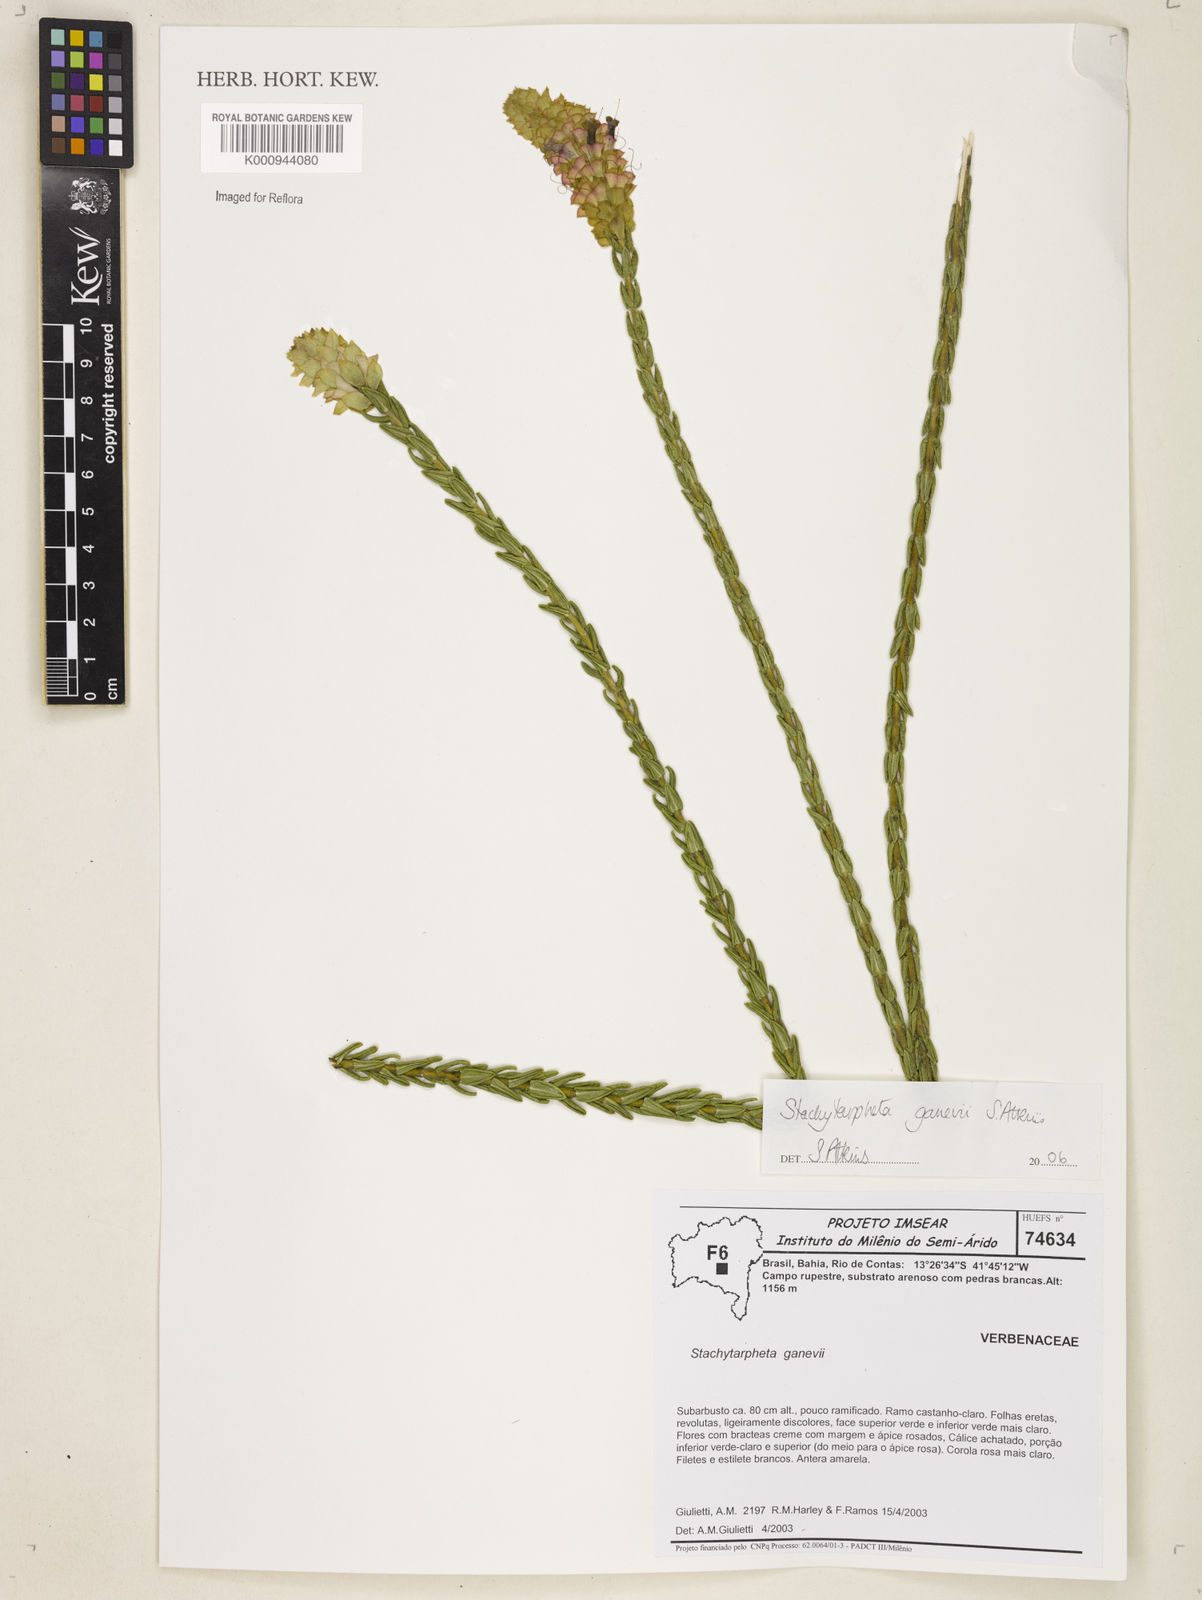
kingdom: Plantae
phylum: Tracheophyta
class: Magnoliopsida
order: Lamiales
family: Verbenaceae
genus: Stachytarpheta
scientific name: Stachytarpheta ganevii
